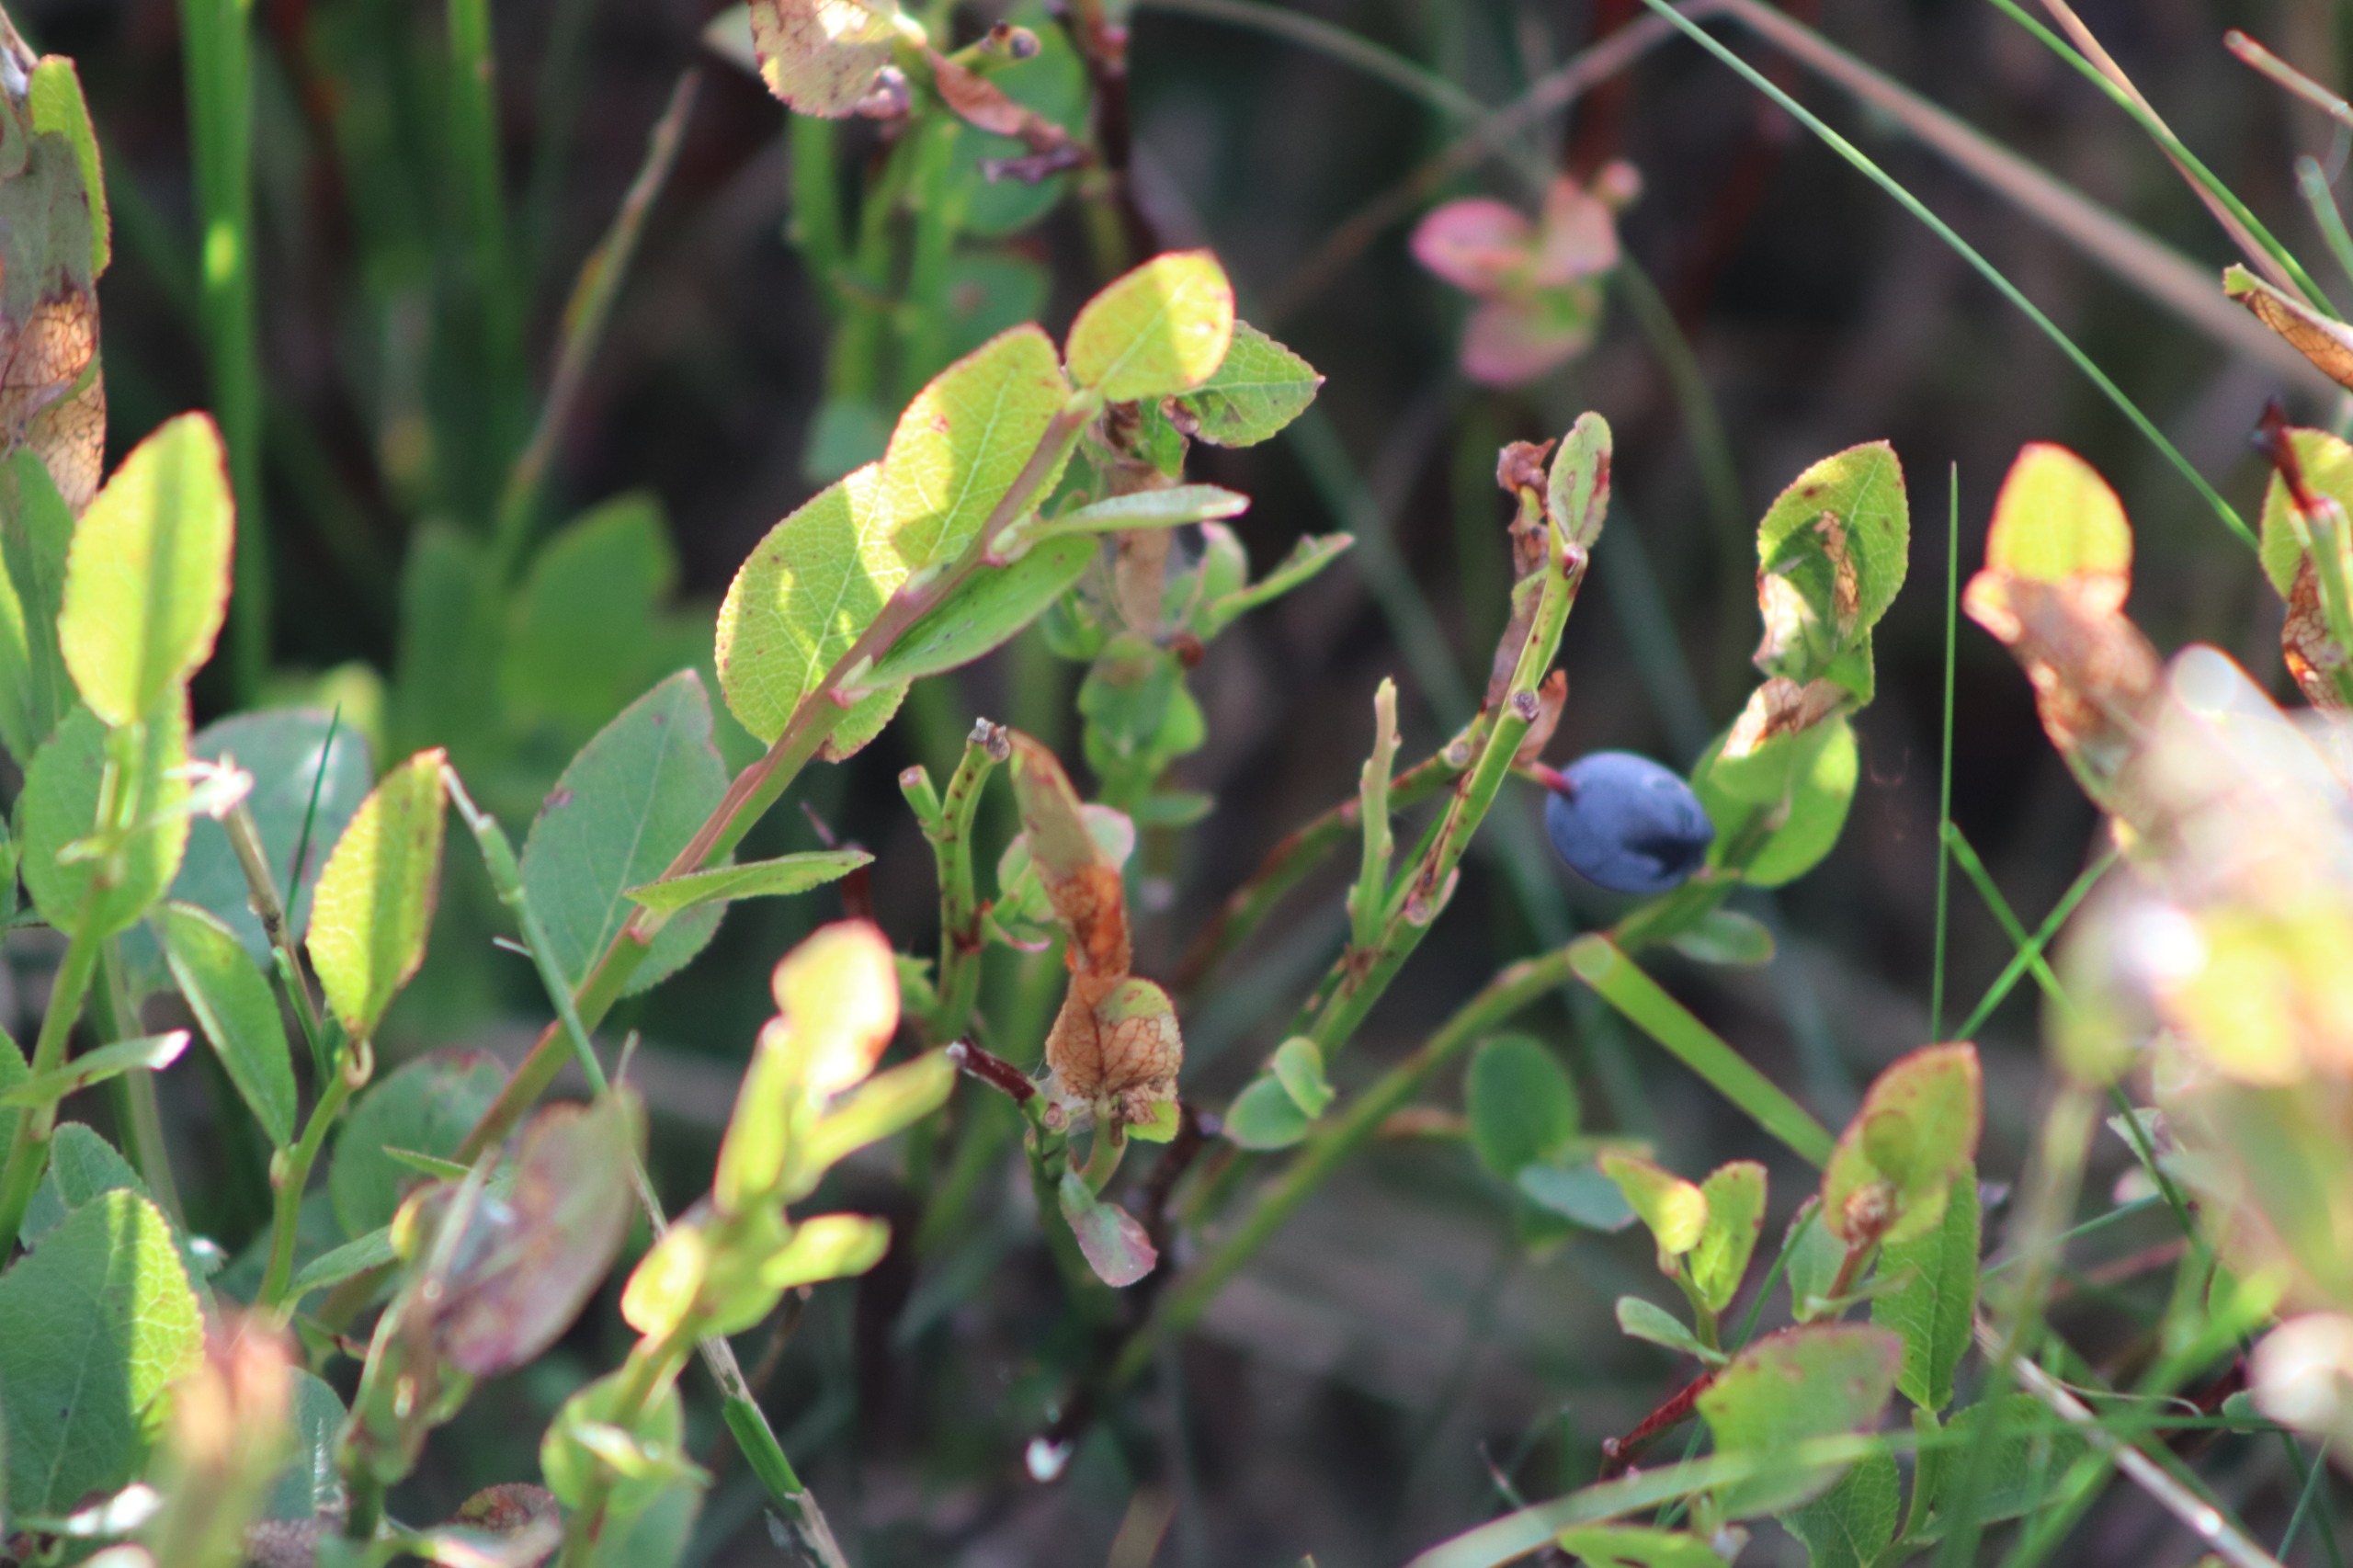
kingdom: Plantae
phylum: Tracheophyta
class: Magnoliopsida
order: Ericales
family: Ericaceae
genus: Vaccinium
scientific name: Vaccinium myrtillus
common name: Blåbær
